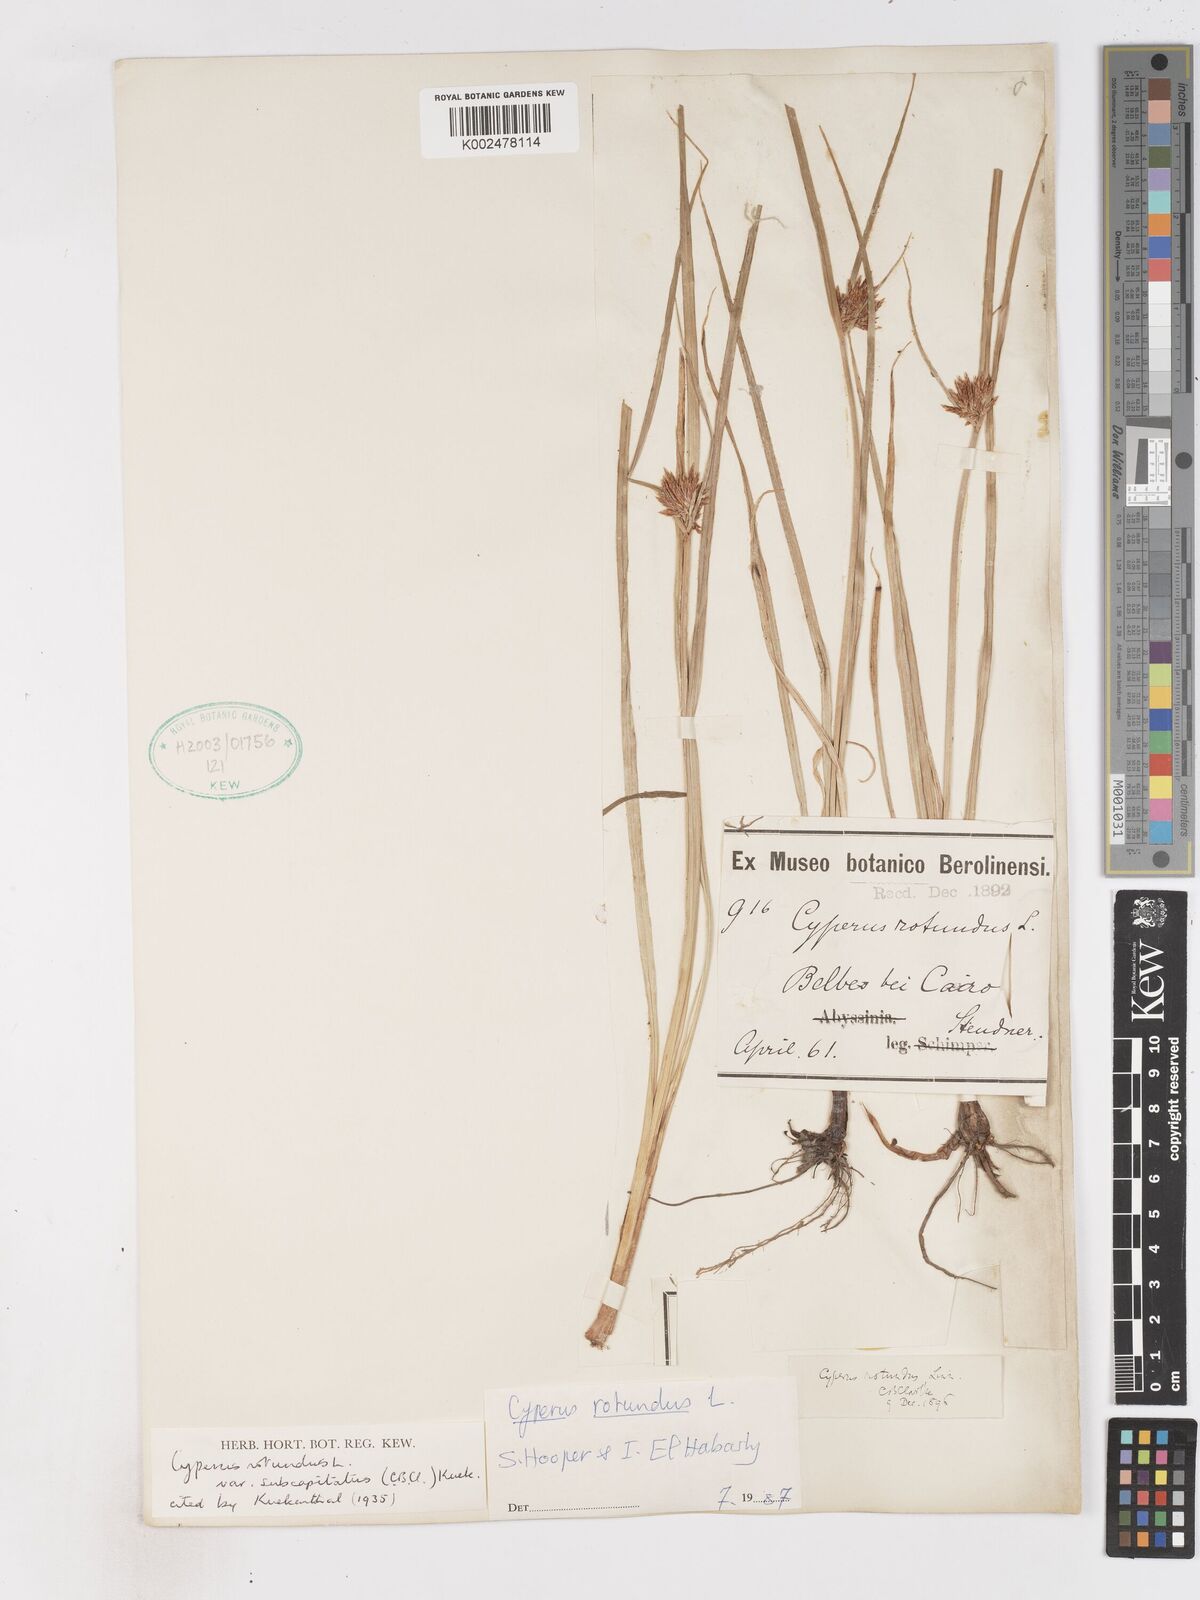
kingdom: Plantae
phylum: Tracheophyta
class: Liliopsida
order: Poales
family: Cyperaceae
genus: Cyperus
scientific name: Cyperus rotundus
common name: Nutgrass
